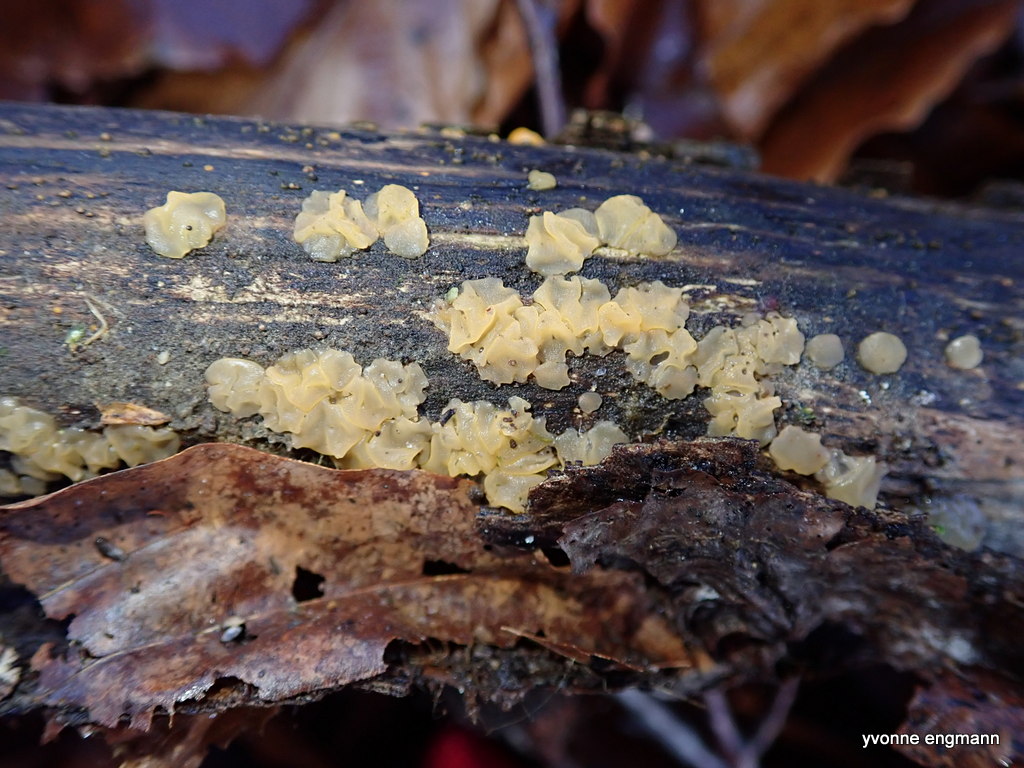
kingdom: Fungi
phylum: Basidiomycota
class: Dacrymycetes
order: Dacrymycetales
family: Dacrymycetaceae
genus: Dacrymyces
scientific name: Dacrymyces
